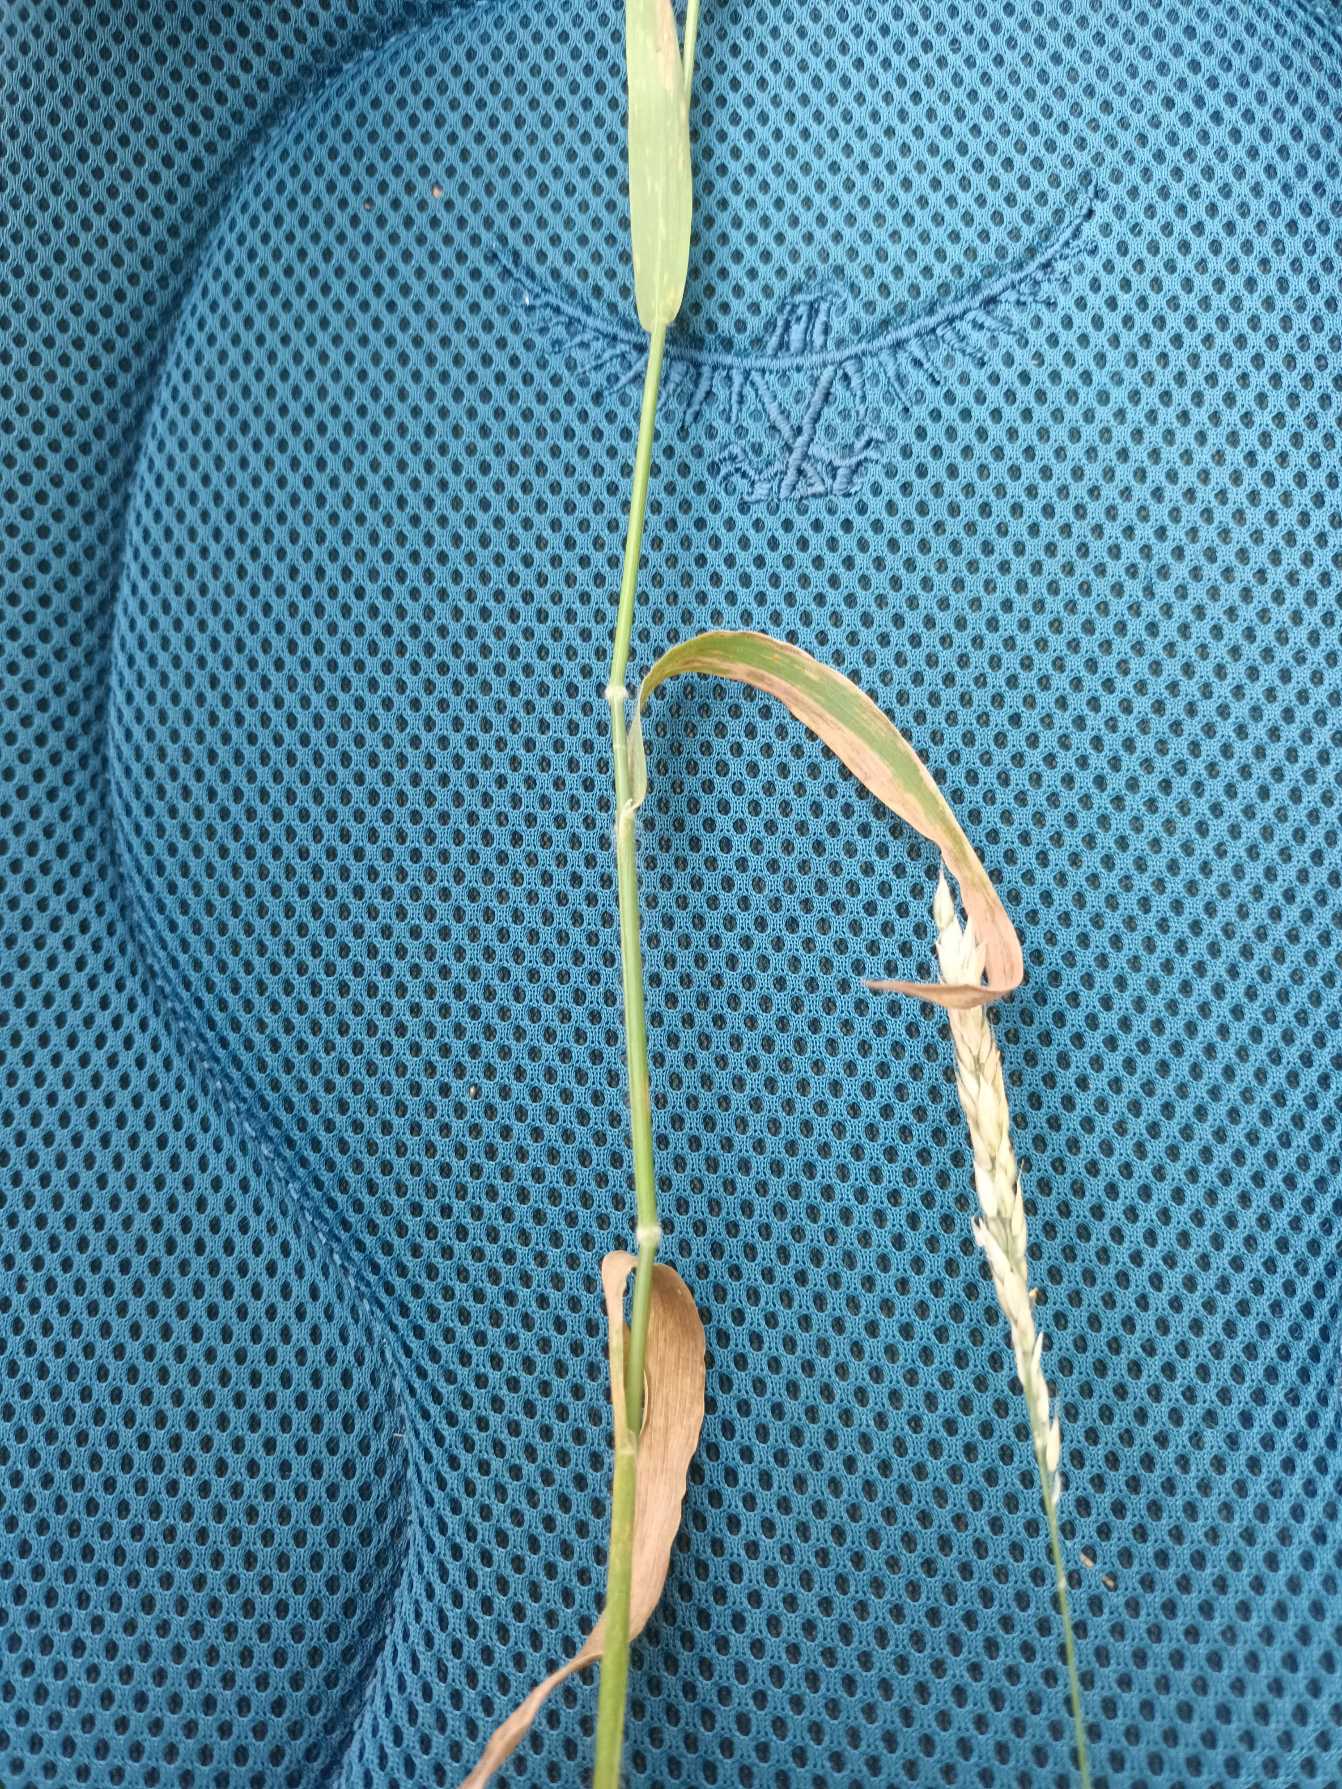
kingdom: Plantae
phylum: Tracheophyta
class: Liliopsida
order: Poales
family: Poaceae
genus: Holcus
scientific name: Holcus mollis
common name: Krybende hestegræs
